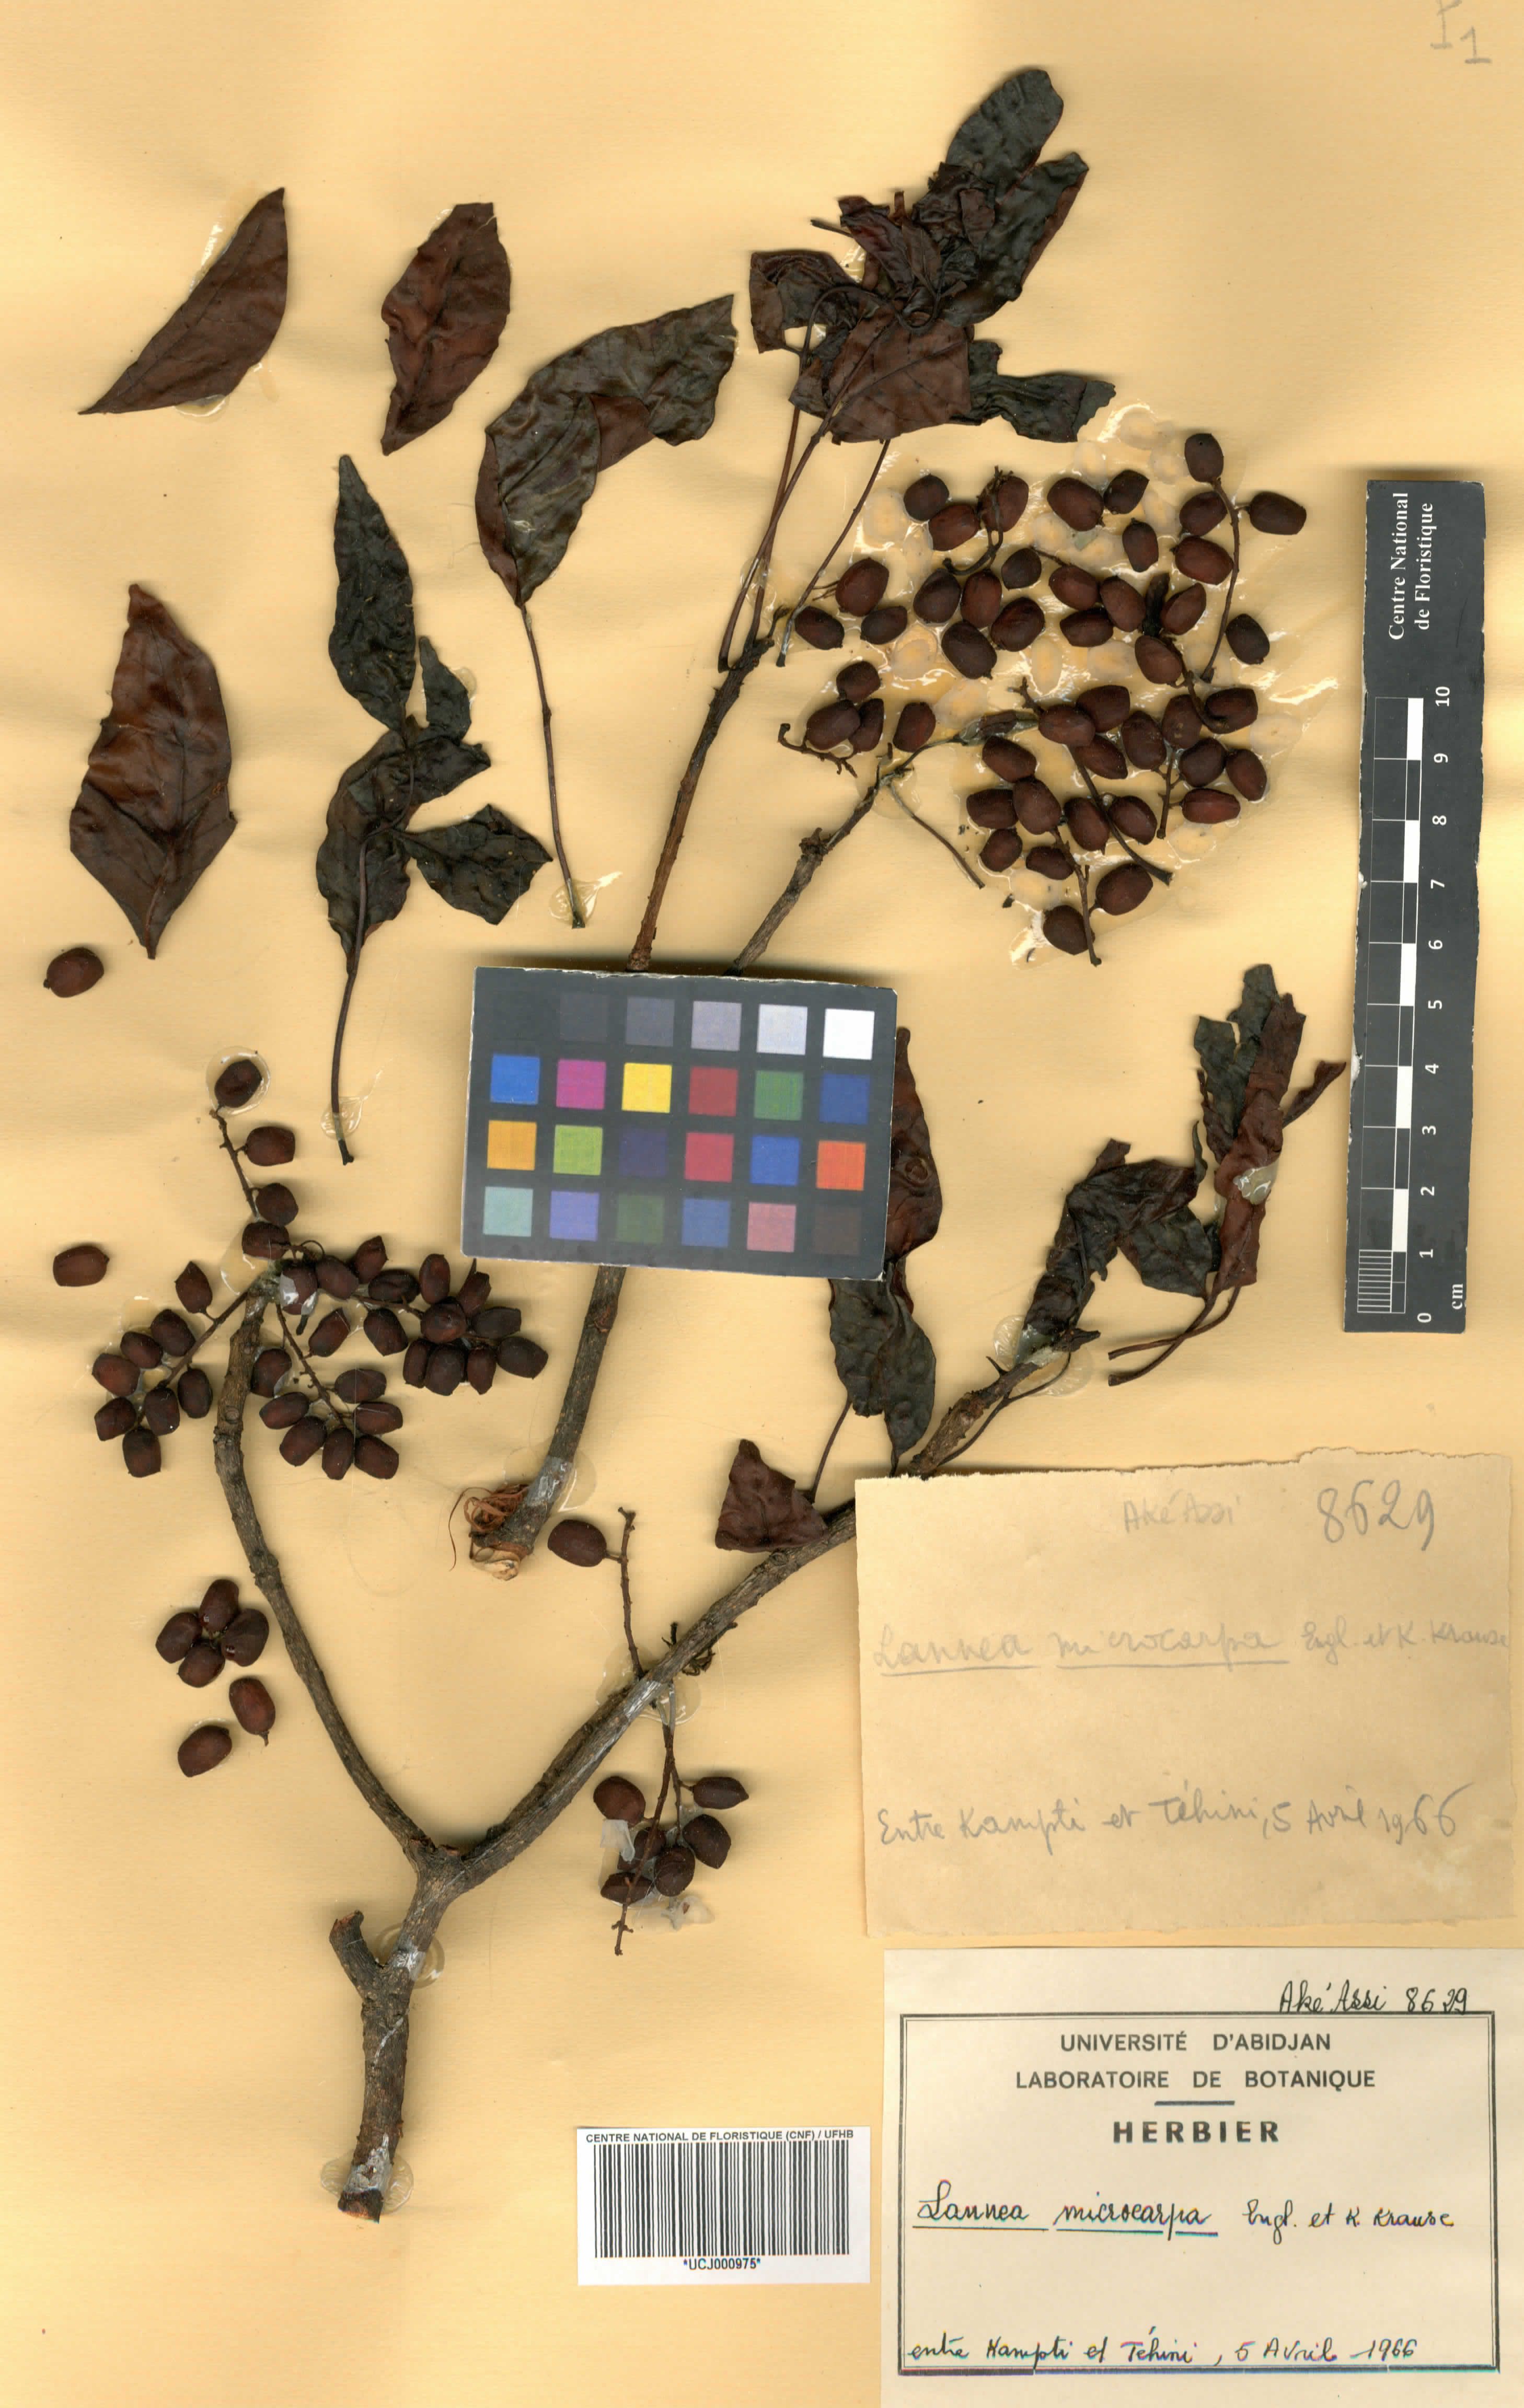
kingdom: Plantae
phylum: Tracheophyta
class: Magnoliopsida
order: Sapindales
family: Anacardiaceae
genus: Lannea
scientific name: Lannea microcarpa
